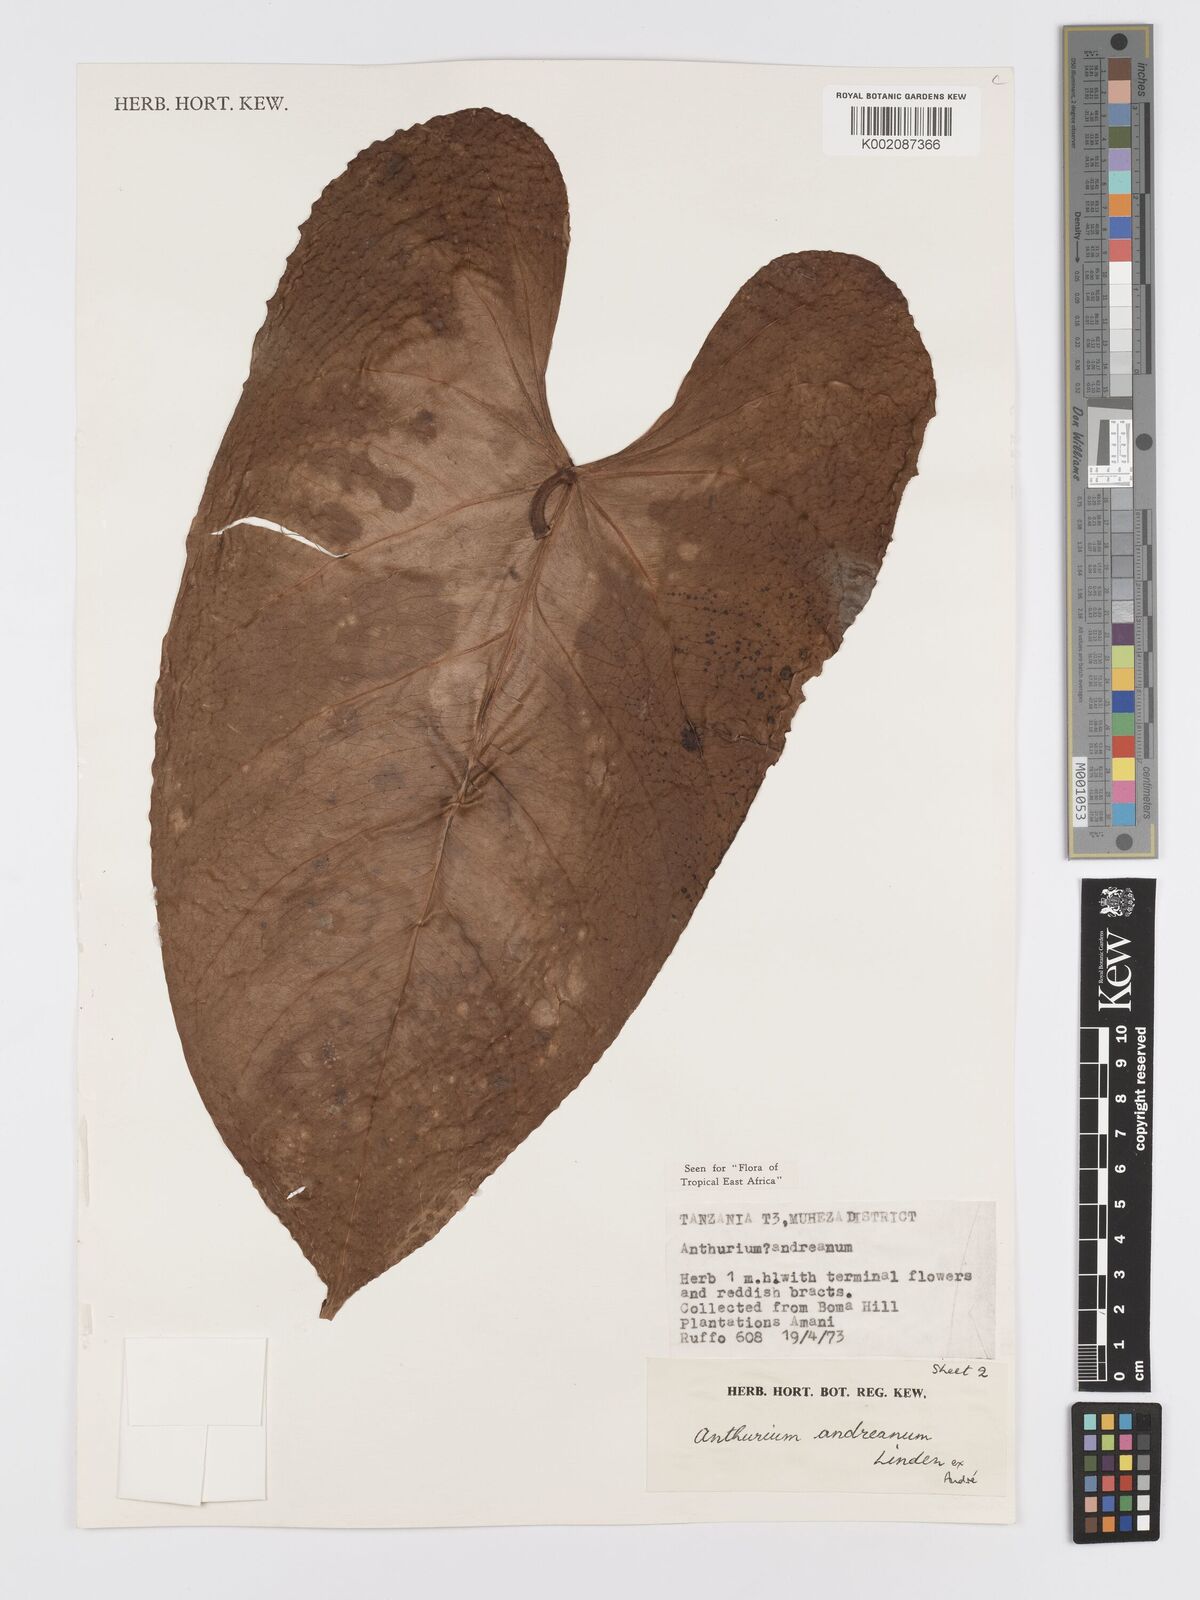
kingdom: Plantae
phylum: Tracheophyta
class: Liliopsida
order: Alismatales
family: Araceae
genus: Anthurium
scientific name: Anthurium andraeanum
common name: Flamingo-flower
